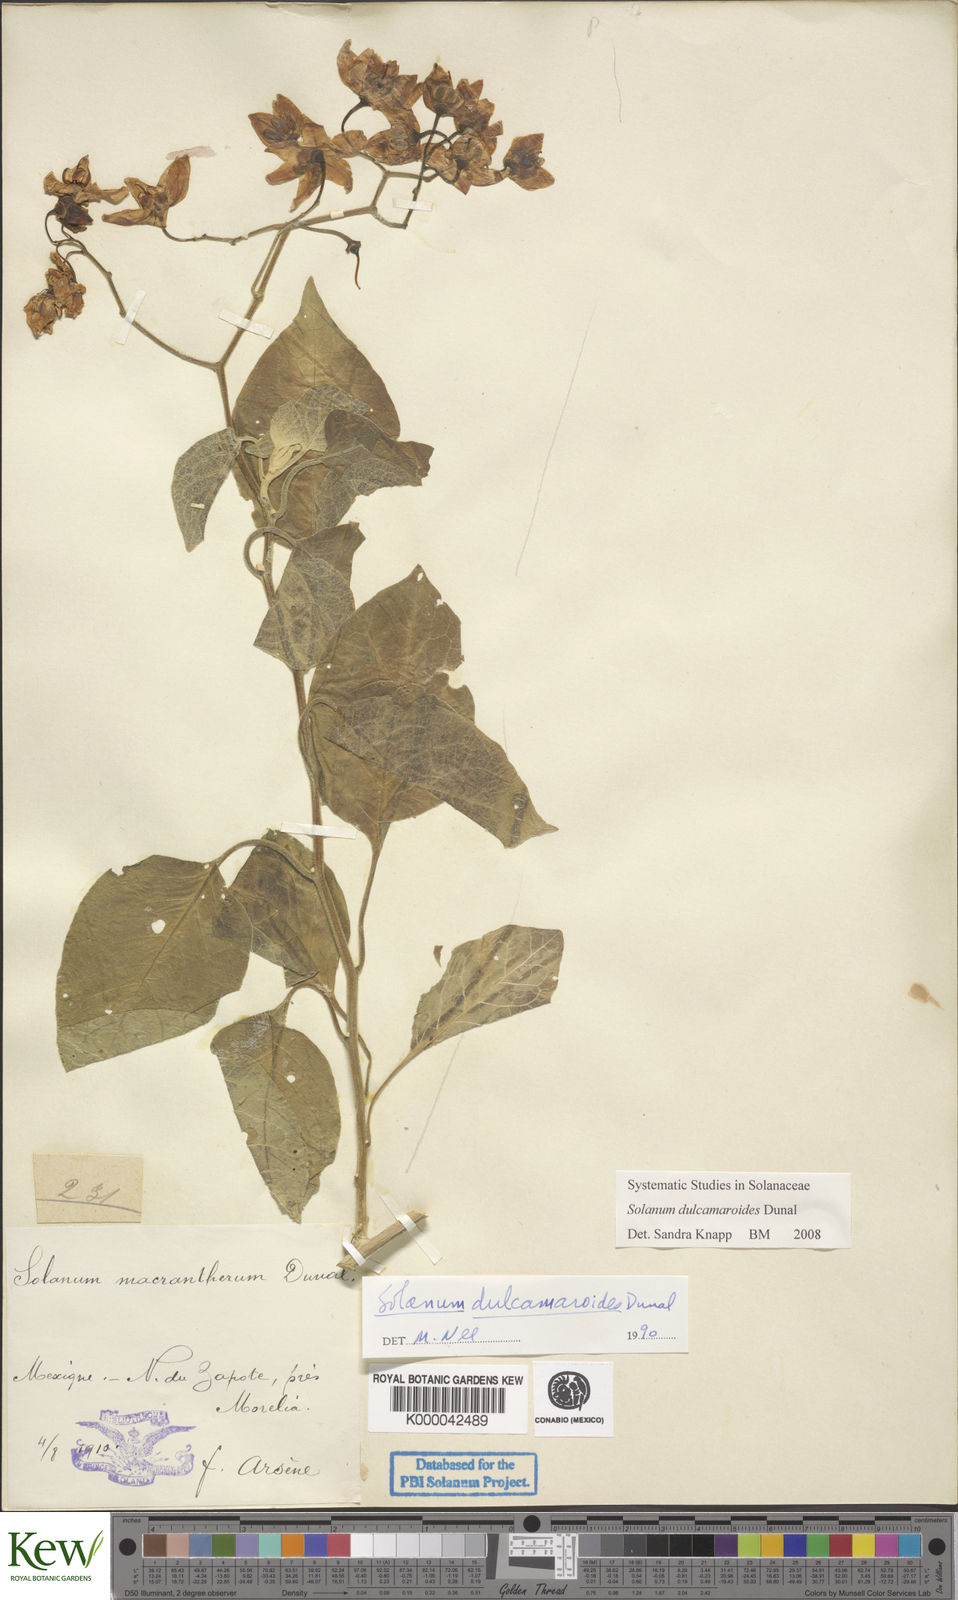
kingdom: Plantae
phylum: Tracheophyta
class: Magnoliopsida
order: Solanales
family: Solanaceae
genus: Solanum
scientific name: Solanum dulcamaroides
